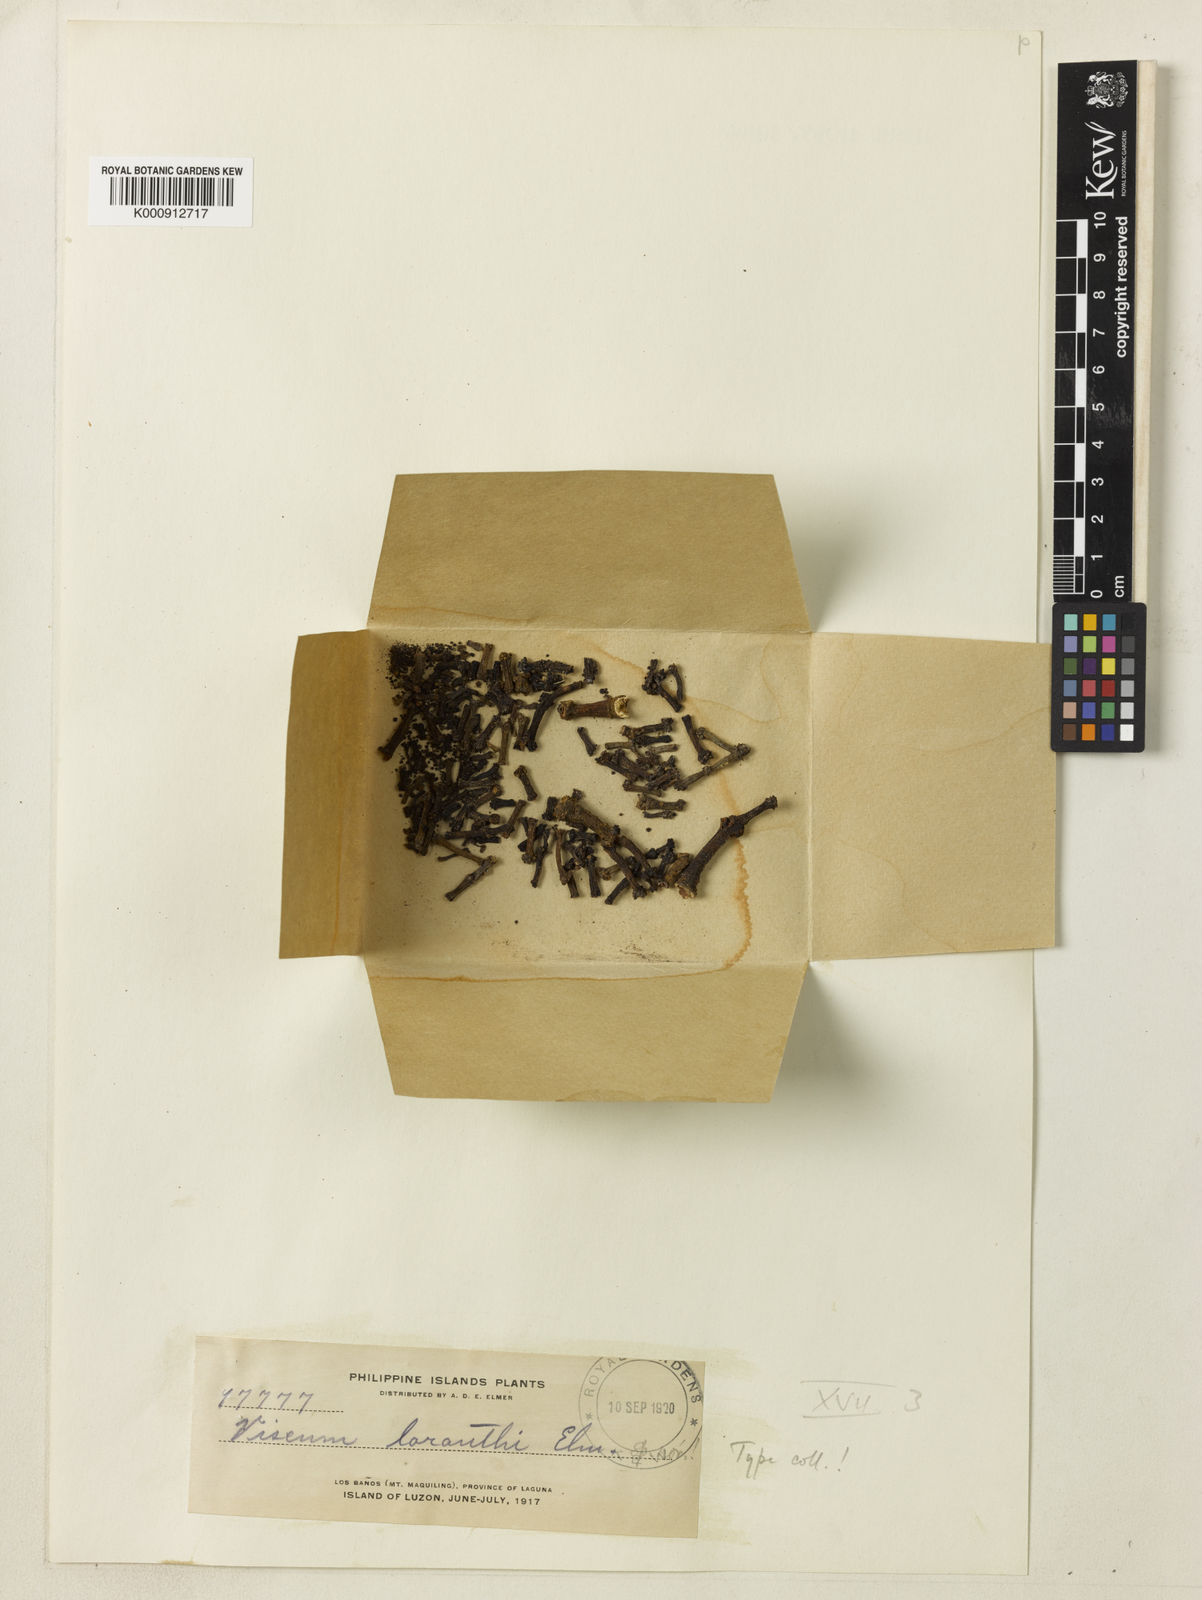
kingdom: Plantae
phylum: Tracheophyta
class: Magnoliopsida
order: Santalales
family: Viscaceae
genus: Viscum
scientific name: Viscum loranthi
